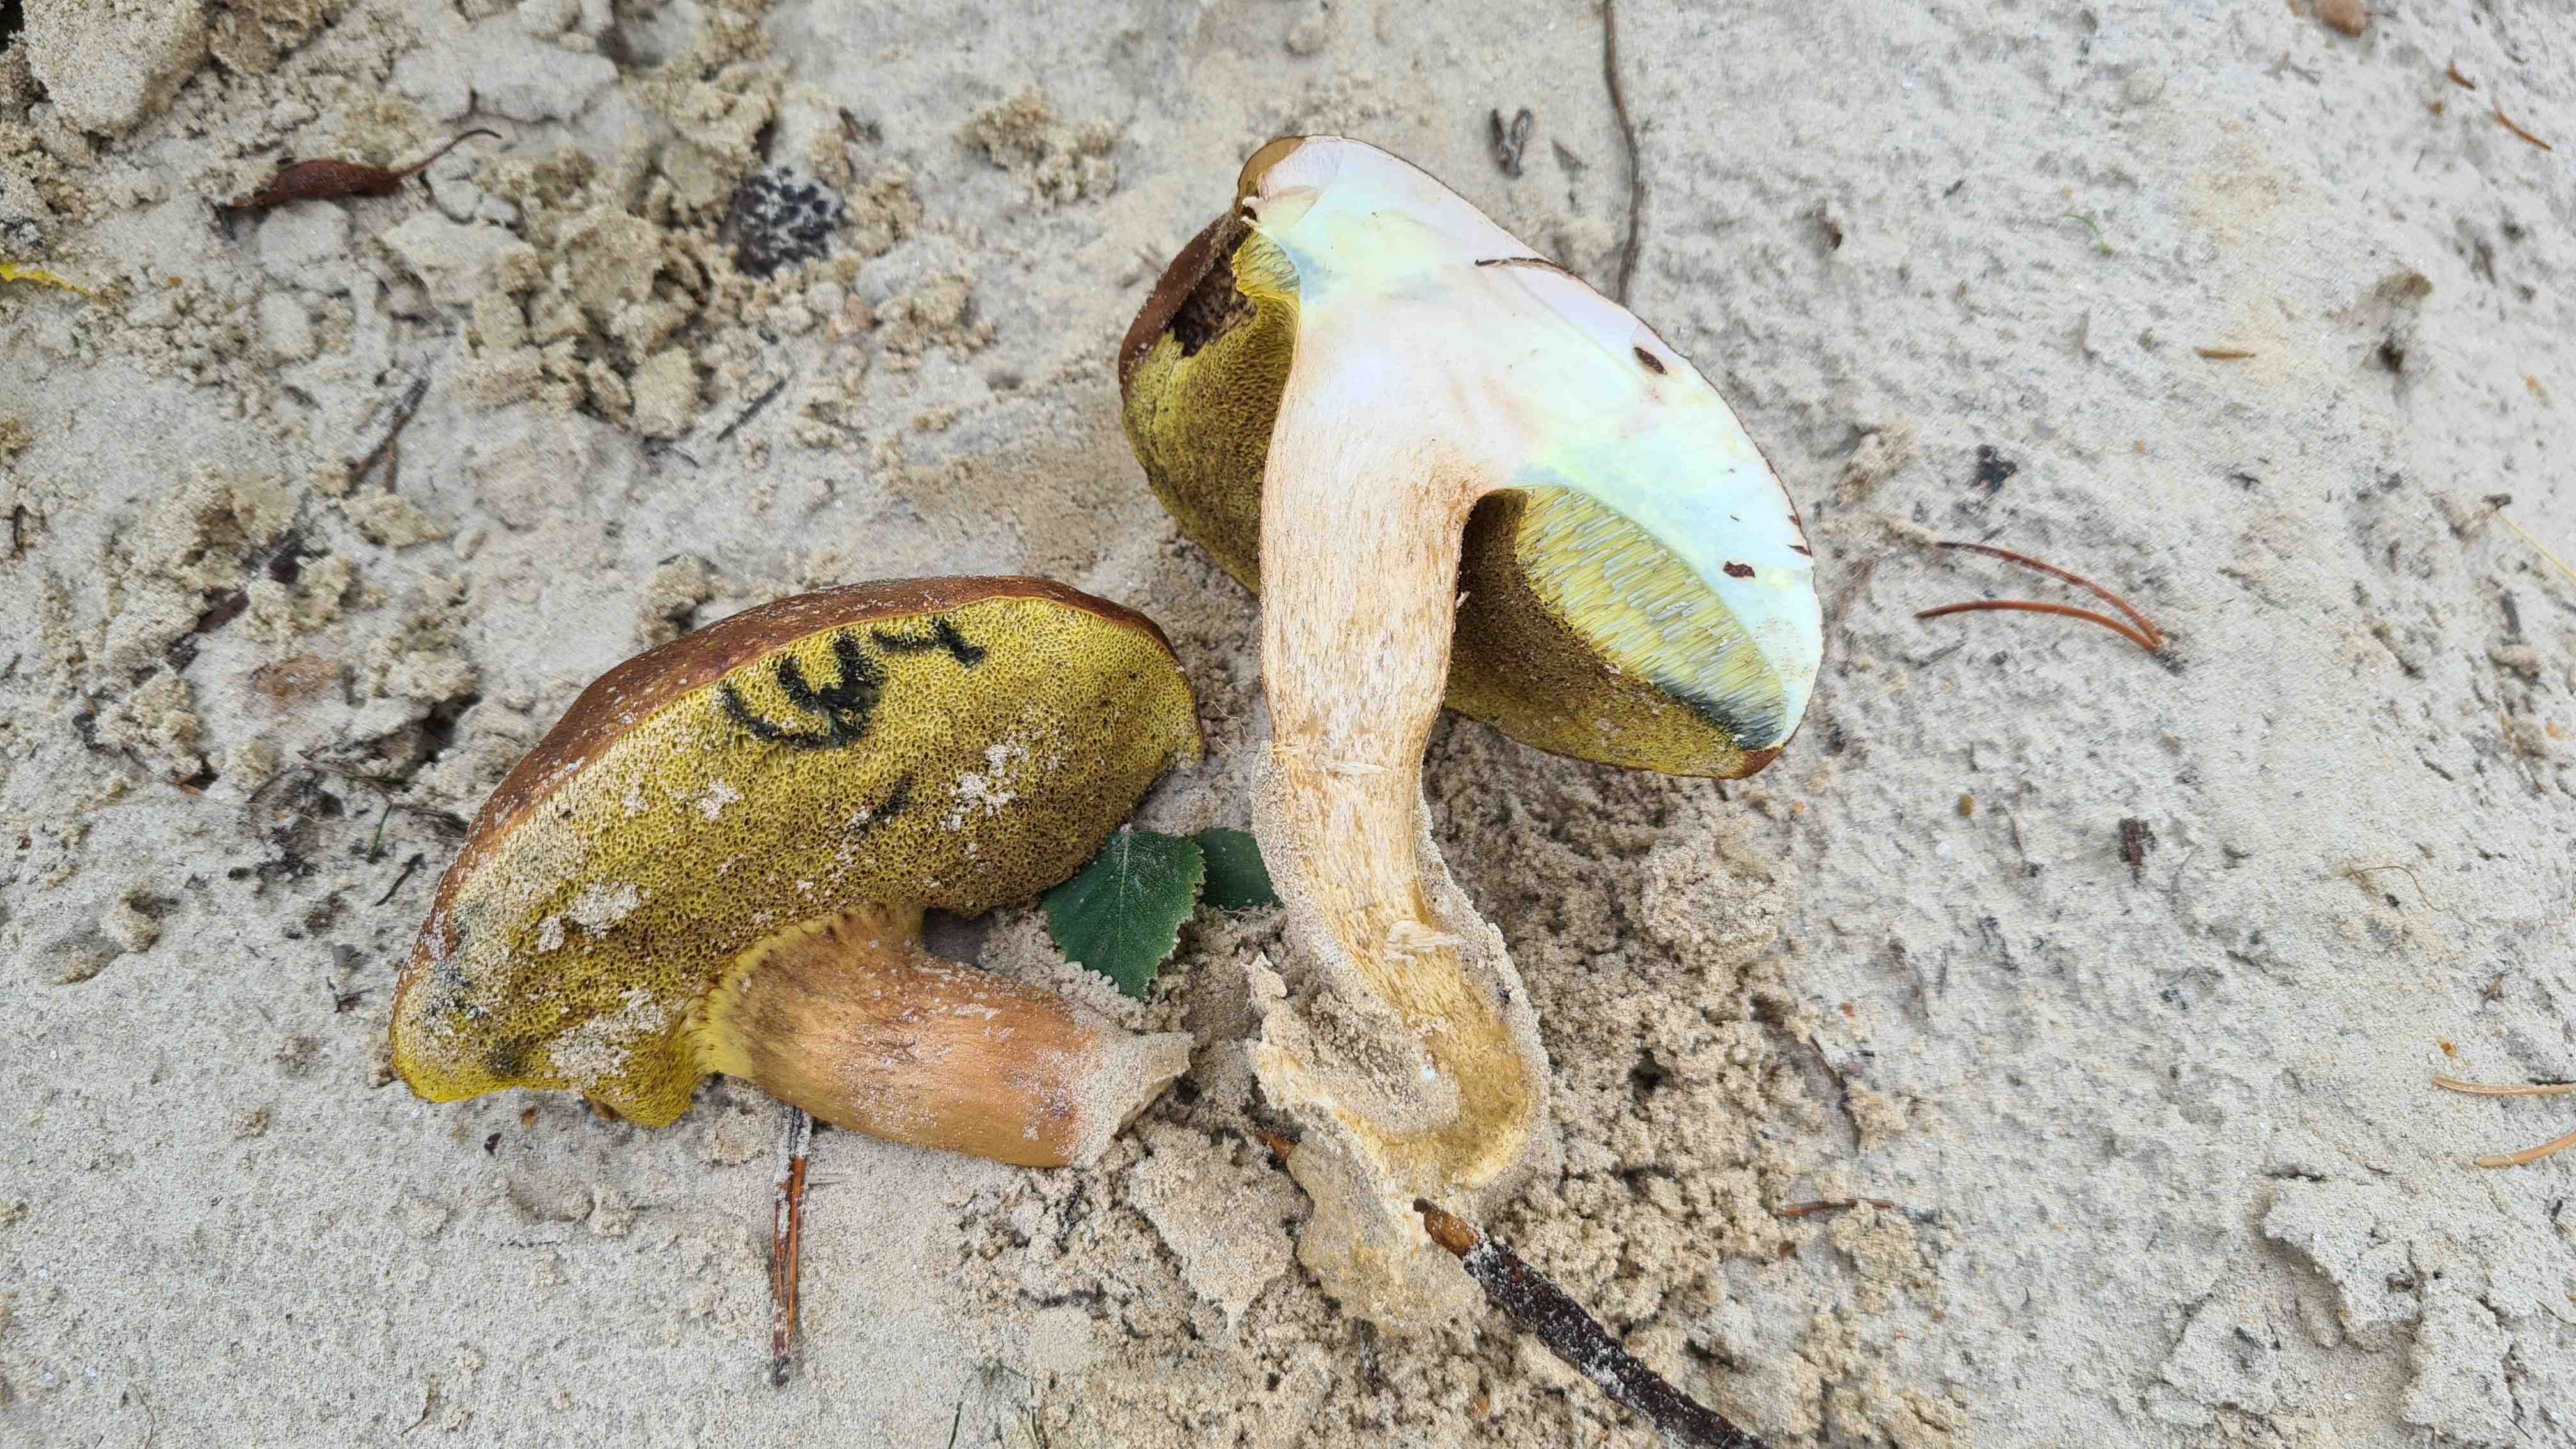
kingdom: Fungi
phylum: Basidiomycota
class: Agaricomycetes
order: Boletales
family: Boletaceae
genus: Imleria
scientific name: Imleria badia
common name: brunstokket rørhat
